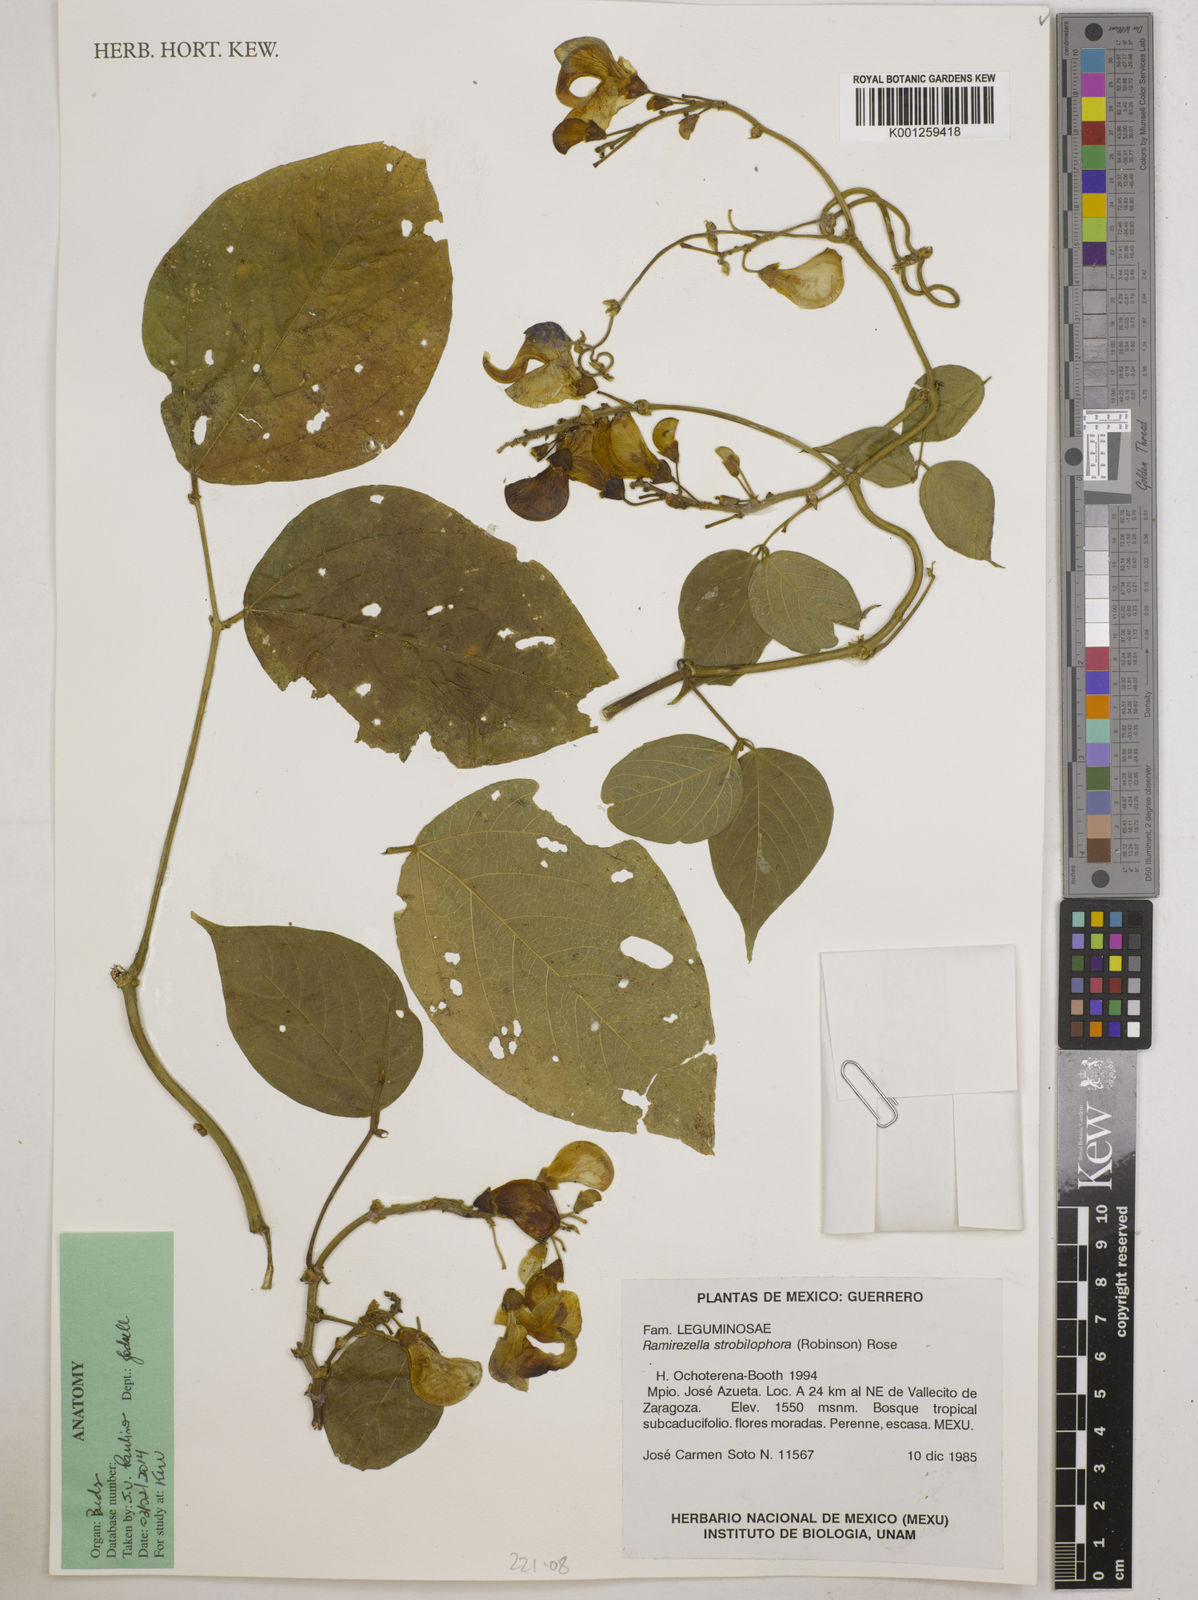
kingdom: Plantae
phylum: Tracheophyta
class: Magnoliopsida
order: Fabales
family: Fabaceae
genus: Ramirezella
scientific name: Ramirezella strobilophora
